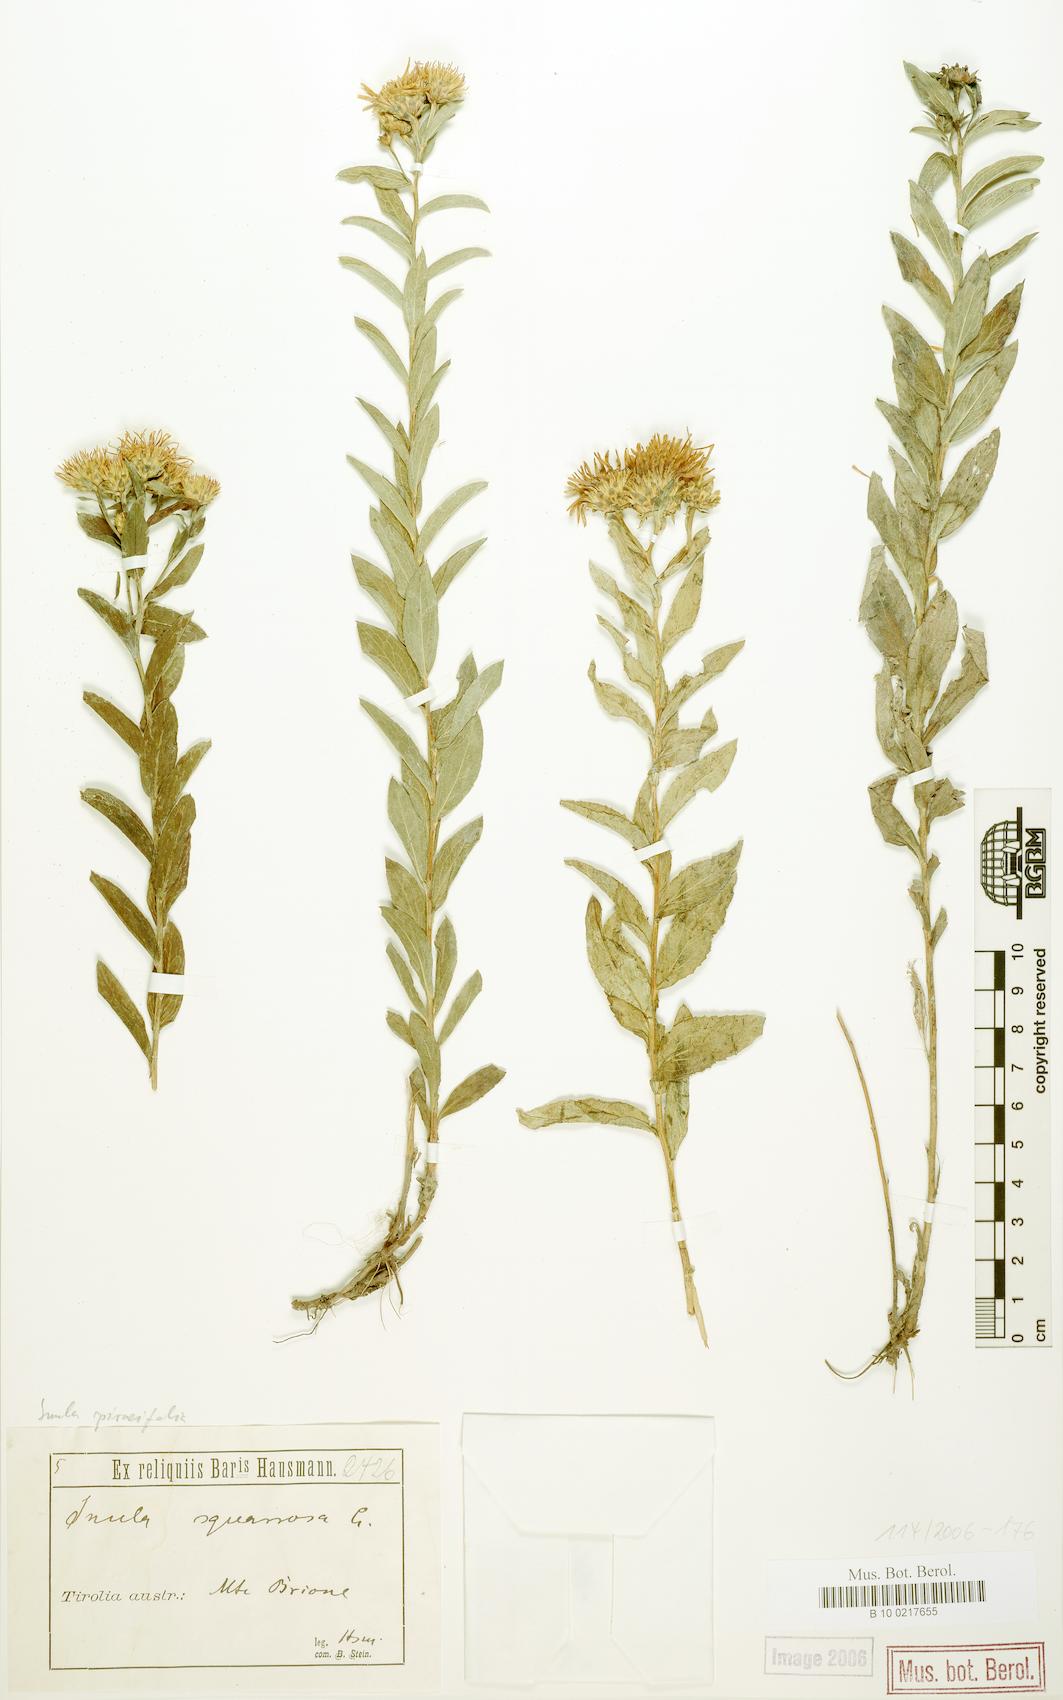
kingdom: Plantae
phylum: Tracheophyta
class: Magnoliopsida
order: Asterales
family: Asteraceae
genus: Pentanema
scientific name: Pentanema spiraeifolium
